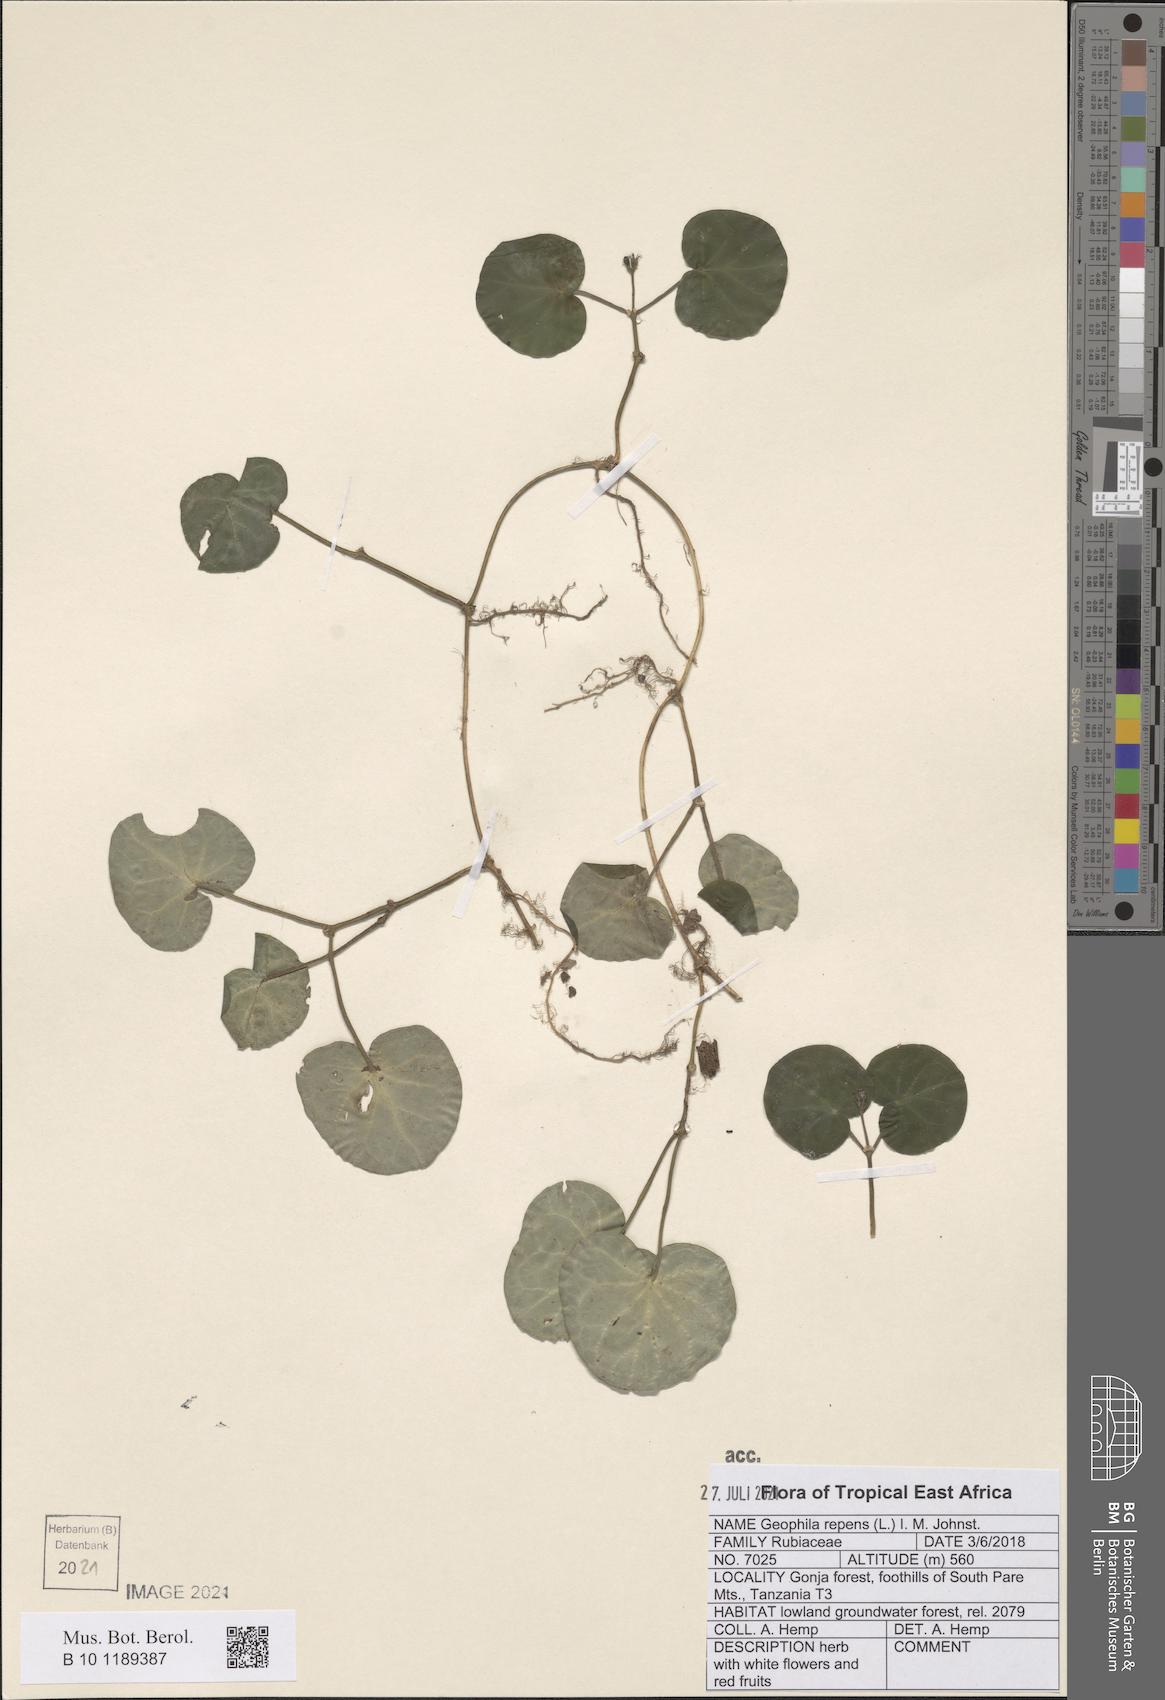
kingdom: Plantae
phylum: Tracheophyta
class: Magnoliopsida
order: Gentianales
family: Rubiaceae
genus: Geophila
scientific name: Geophila repens
